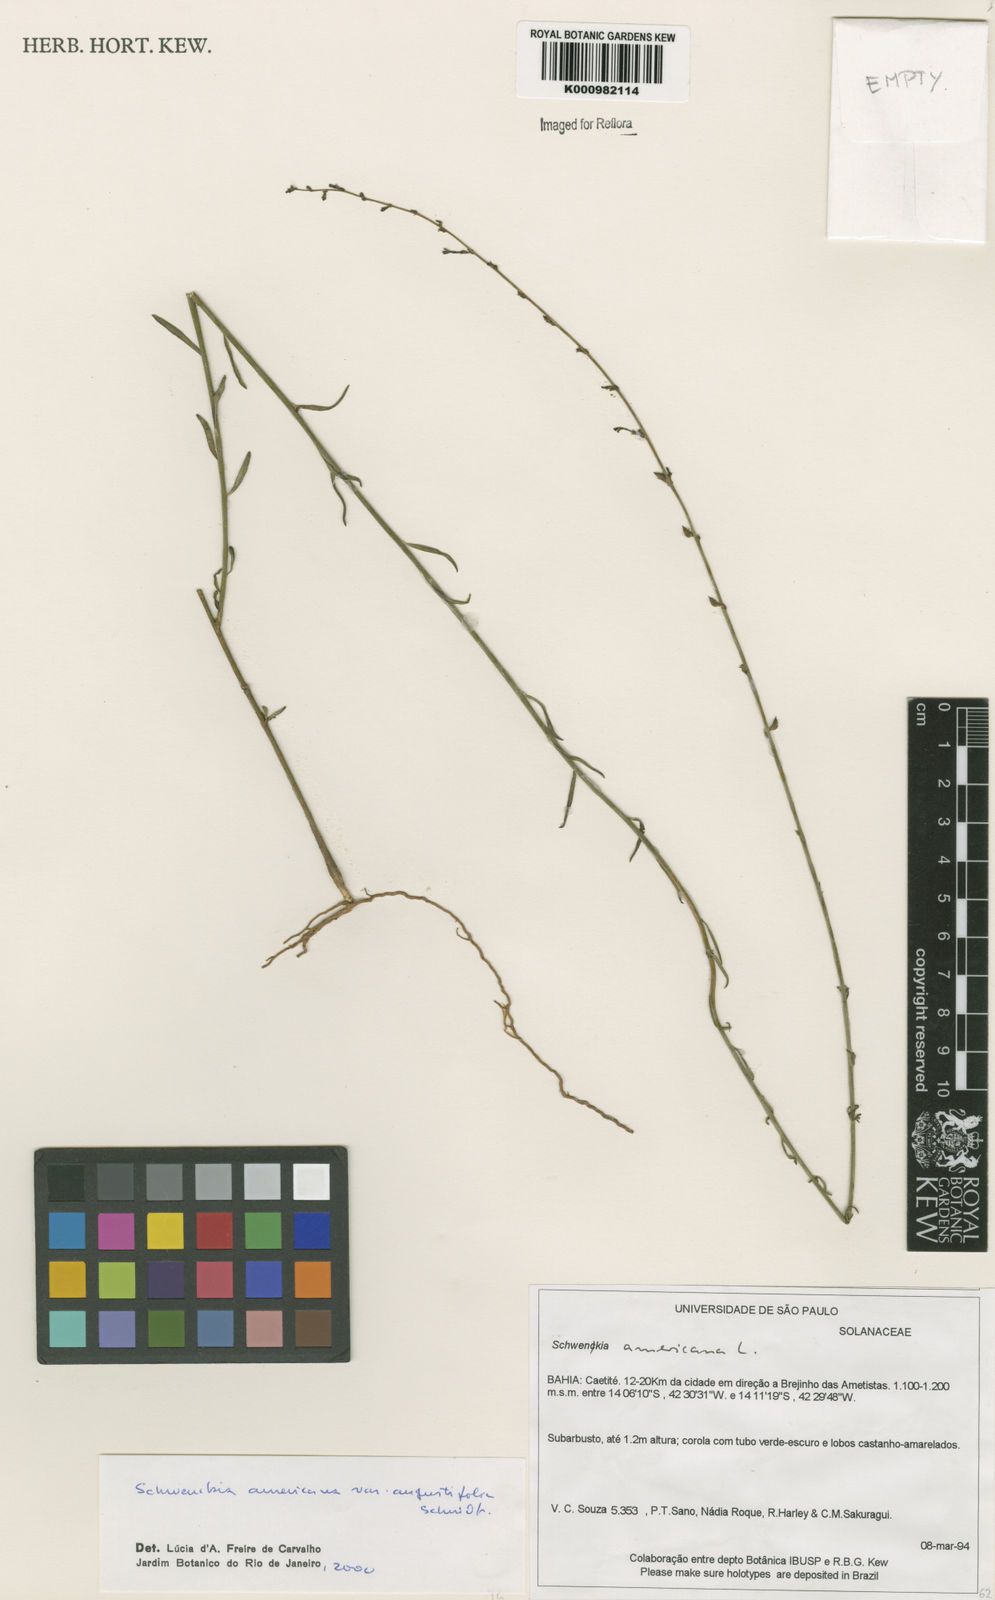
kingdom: Plantae
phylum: Tracheophyta
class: Magnoliopsida
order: Solanales
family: Solanaceae
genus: Schwenckia
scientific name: Schwenckia americana
